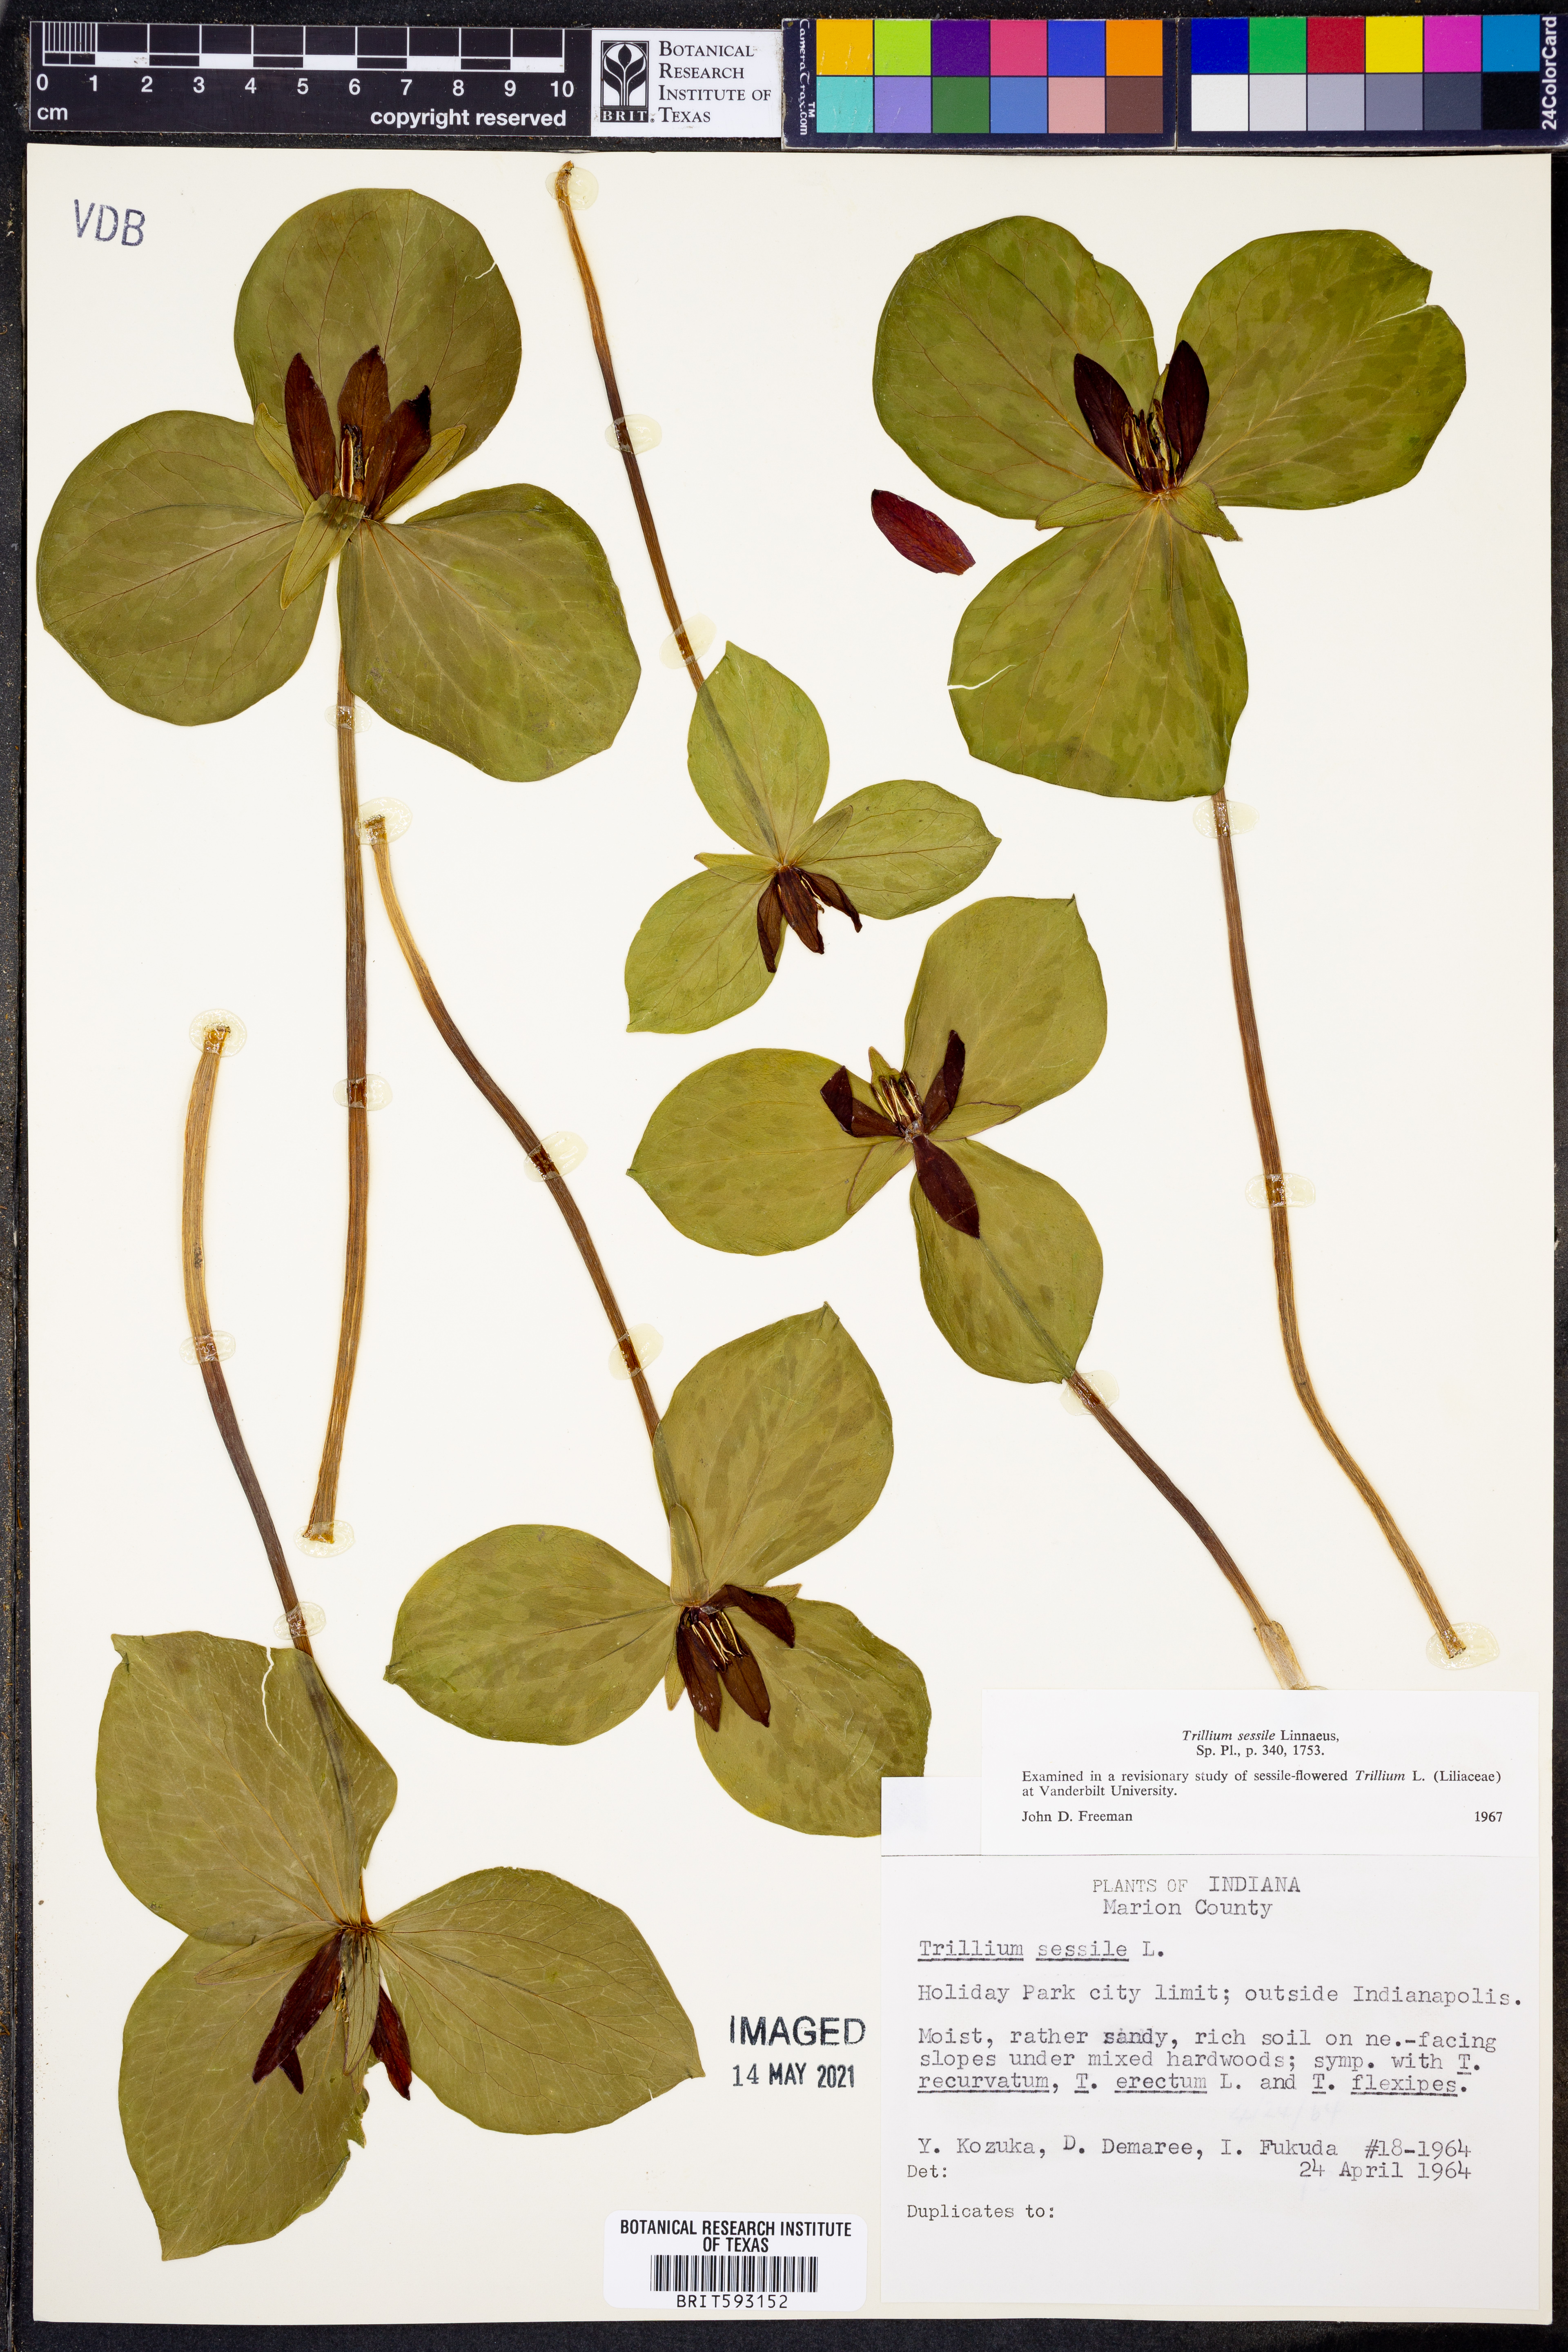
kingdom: Plantae
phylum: Tracheophyta
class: Liliopsida
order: Liliales
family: Melanthiaceae
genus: Trillium
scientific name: Trillium sessile
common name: Sessile trillium
